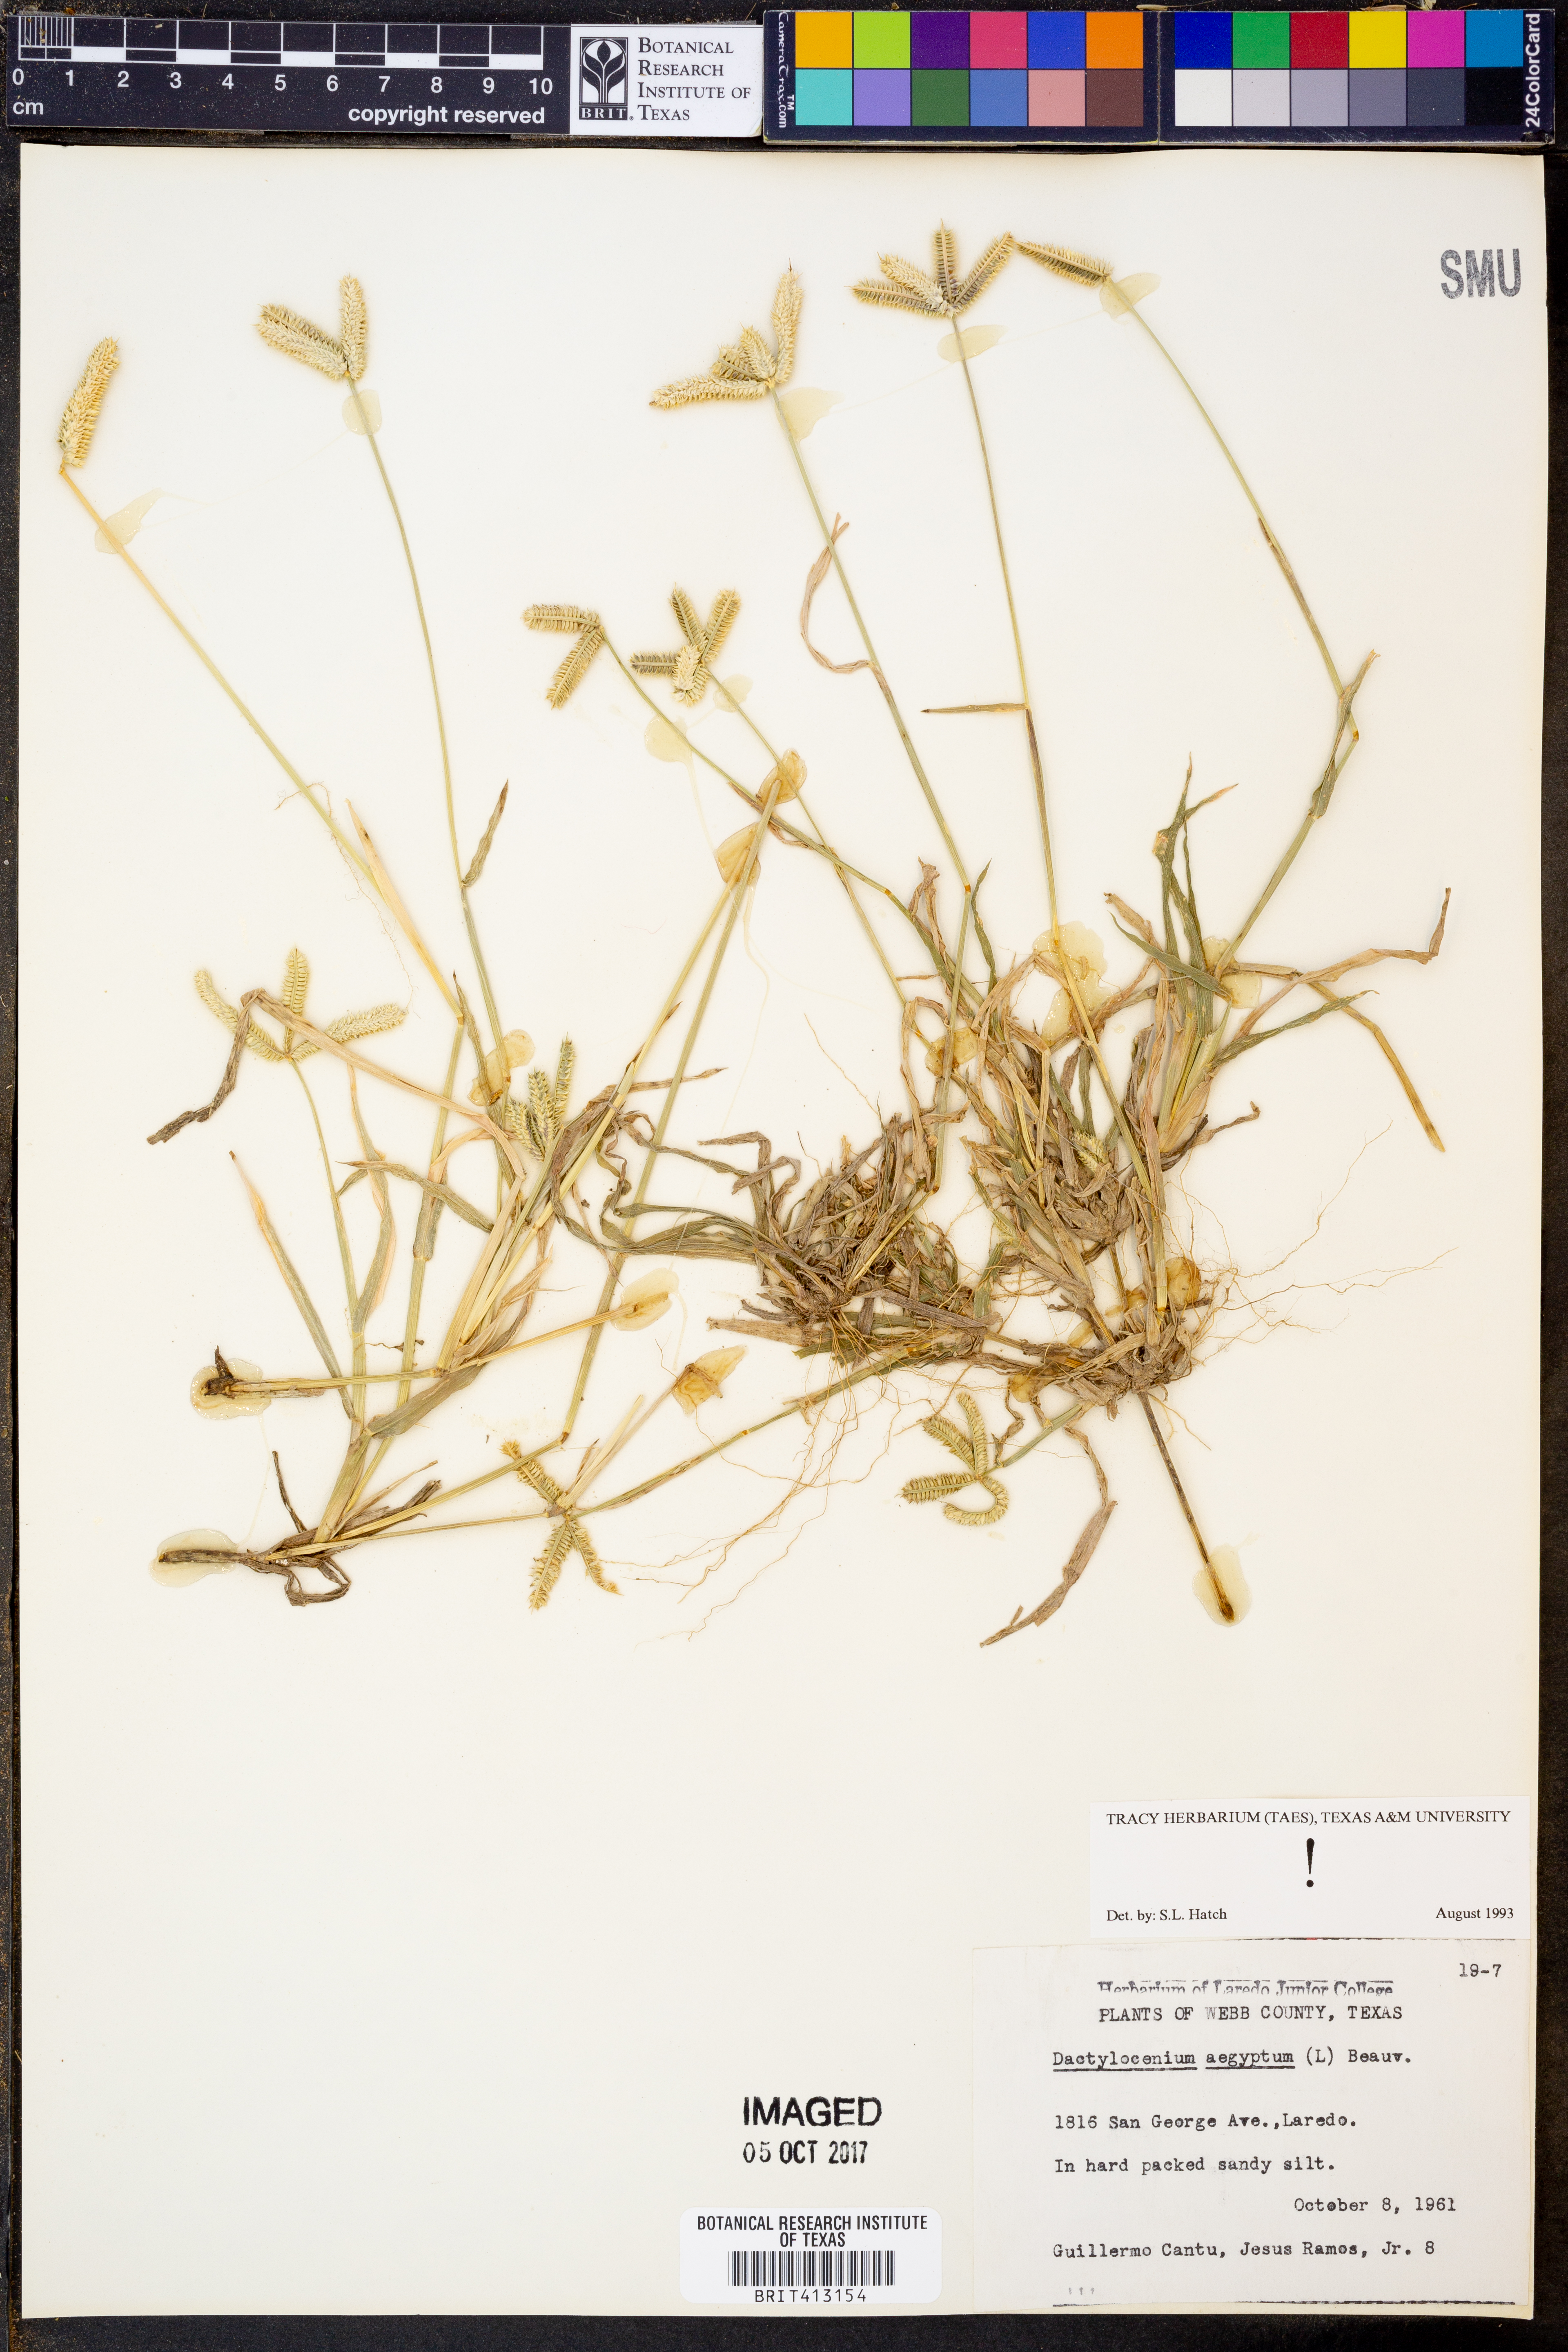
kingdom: Plantae
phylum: Tracheophyta
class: Liliopsida
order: Poales
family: Poaceae
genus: Dactyloctenium
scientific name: Dactyloctenium aegyptium
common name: Egyptian grass
